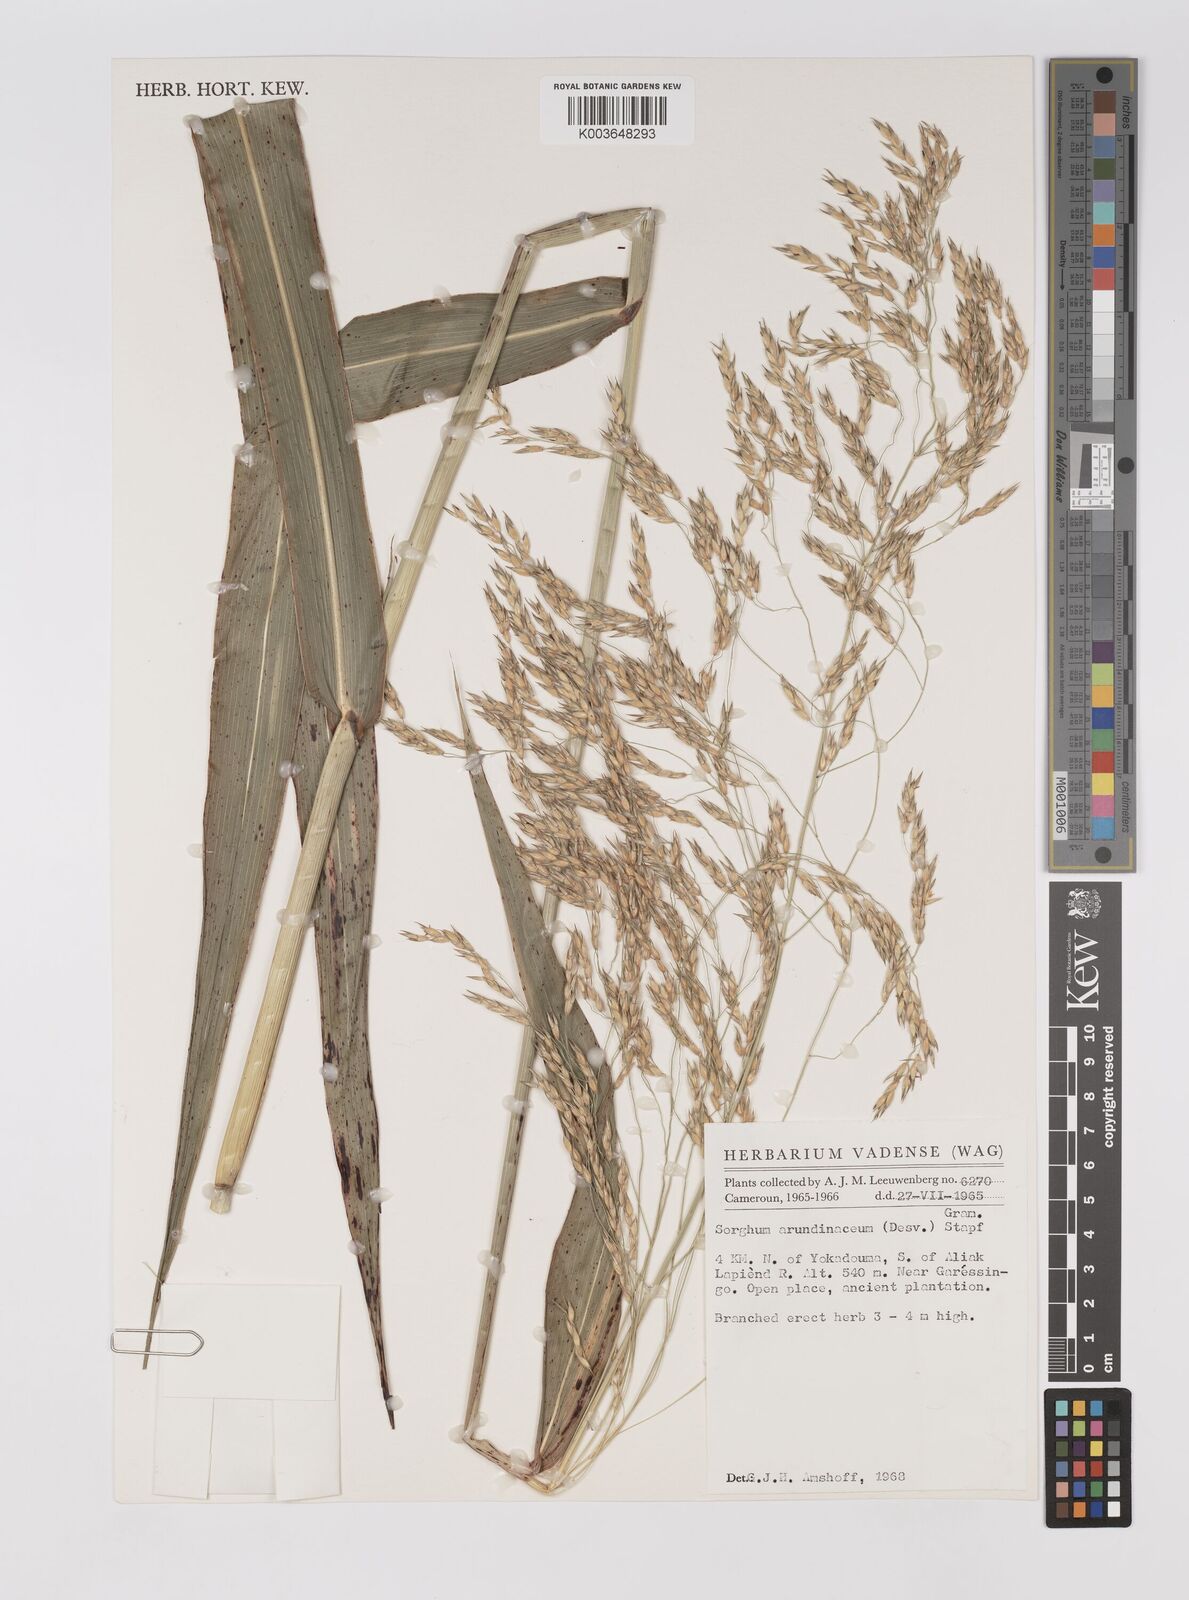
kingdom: Plantae
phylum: Tracheophyta
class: Liliopsida
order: Poales
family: Poaceae
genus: Sorghum
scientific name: Sorghum arundinaceum
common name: Sorghum
